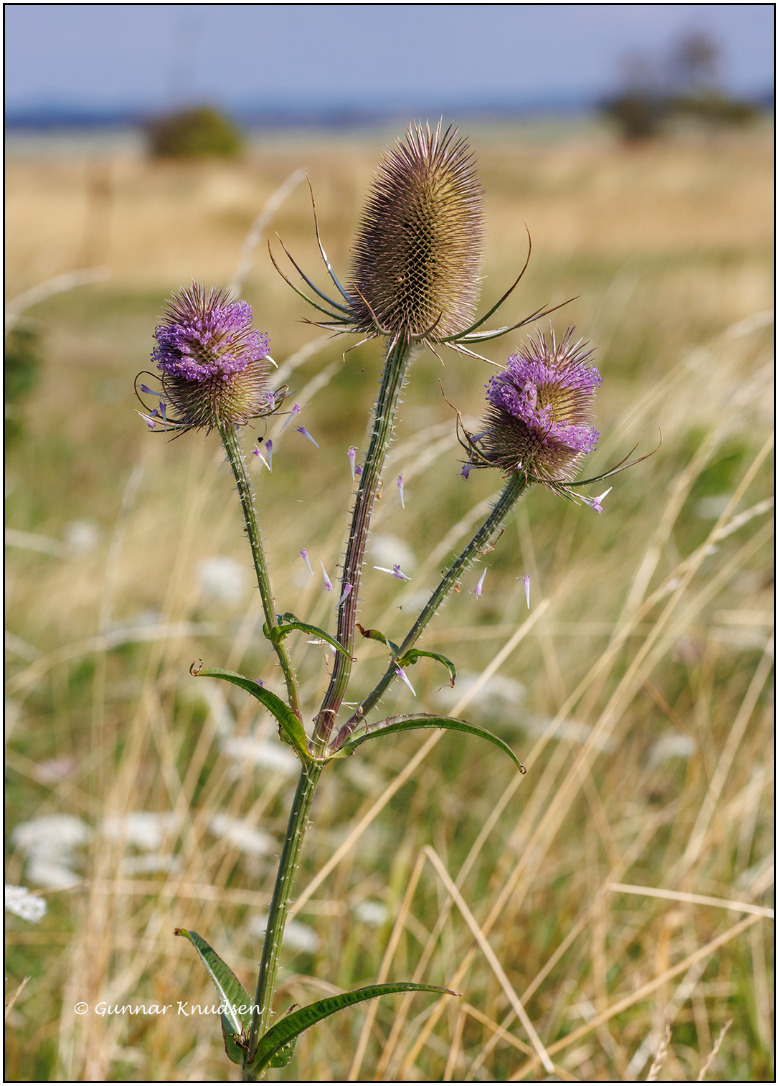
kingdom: Plantae
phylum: Tracheophyta
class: Magnoliopsida
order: Dipsacales
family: Caprifoliaceae
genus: Dipsacus
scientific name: Dipsacus fullonum
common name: Gærde-kartebolle
